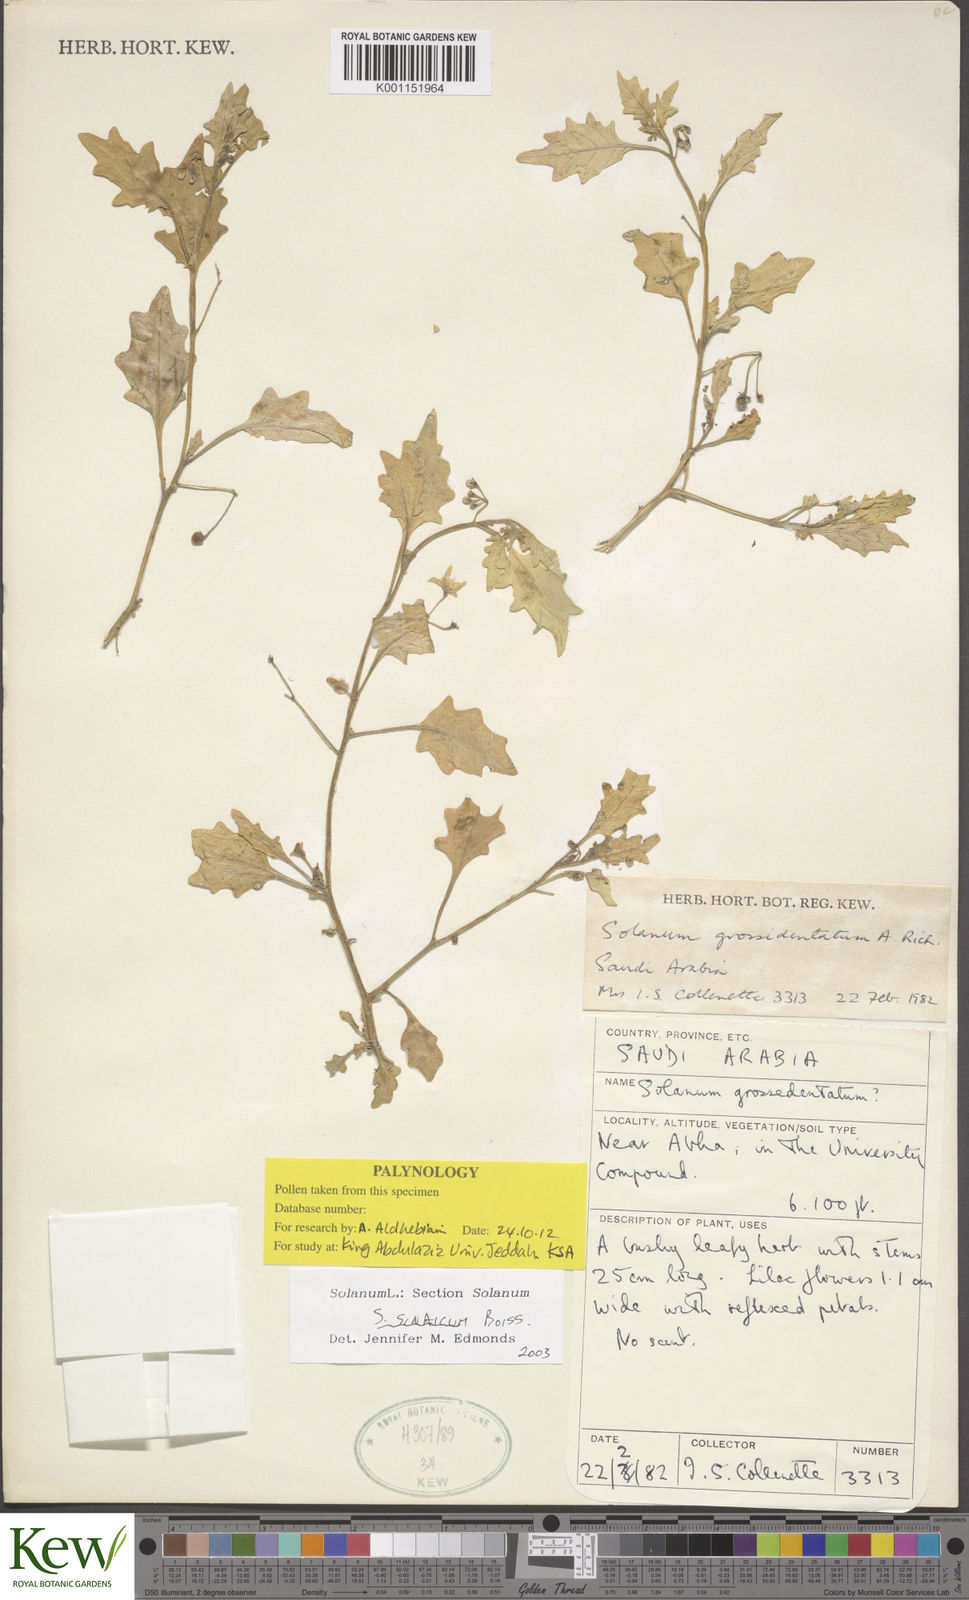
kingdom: Plantae
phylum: Tracheophyta
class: Magnoliopsida
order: Solanales
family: Solanaceae
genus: Solanum
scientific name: Solanum villosum
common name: Red nightshade
